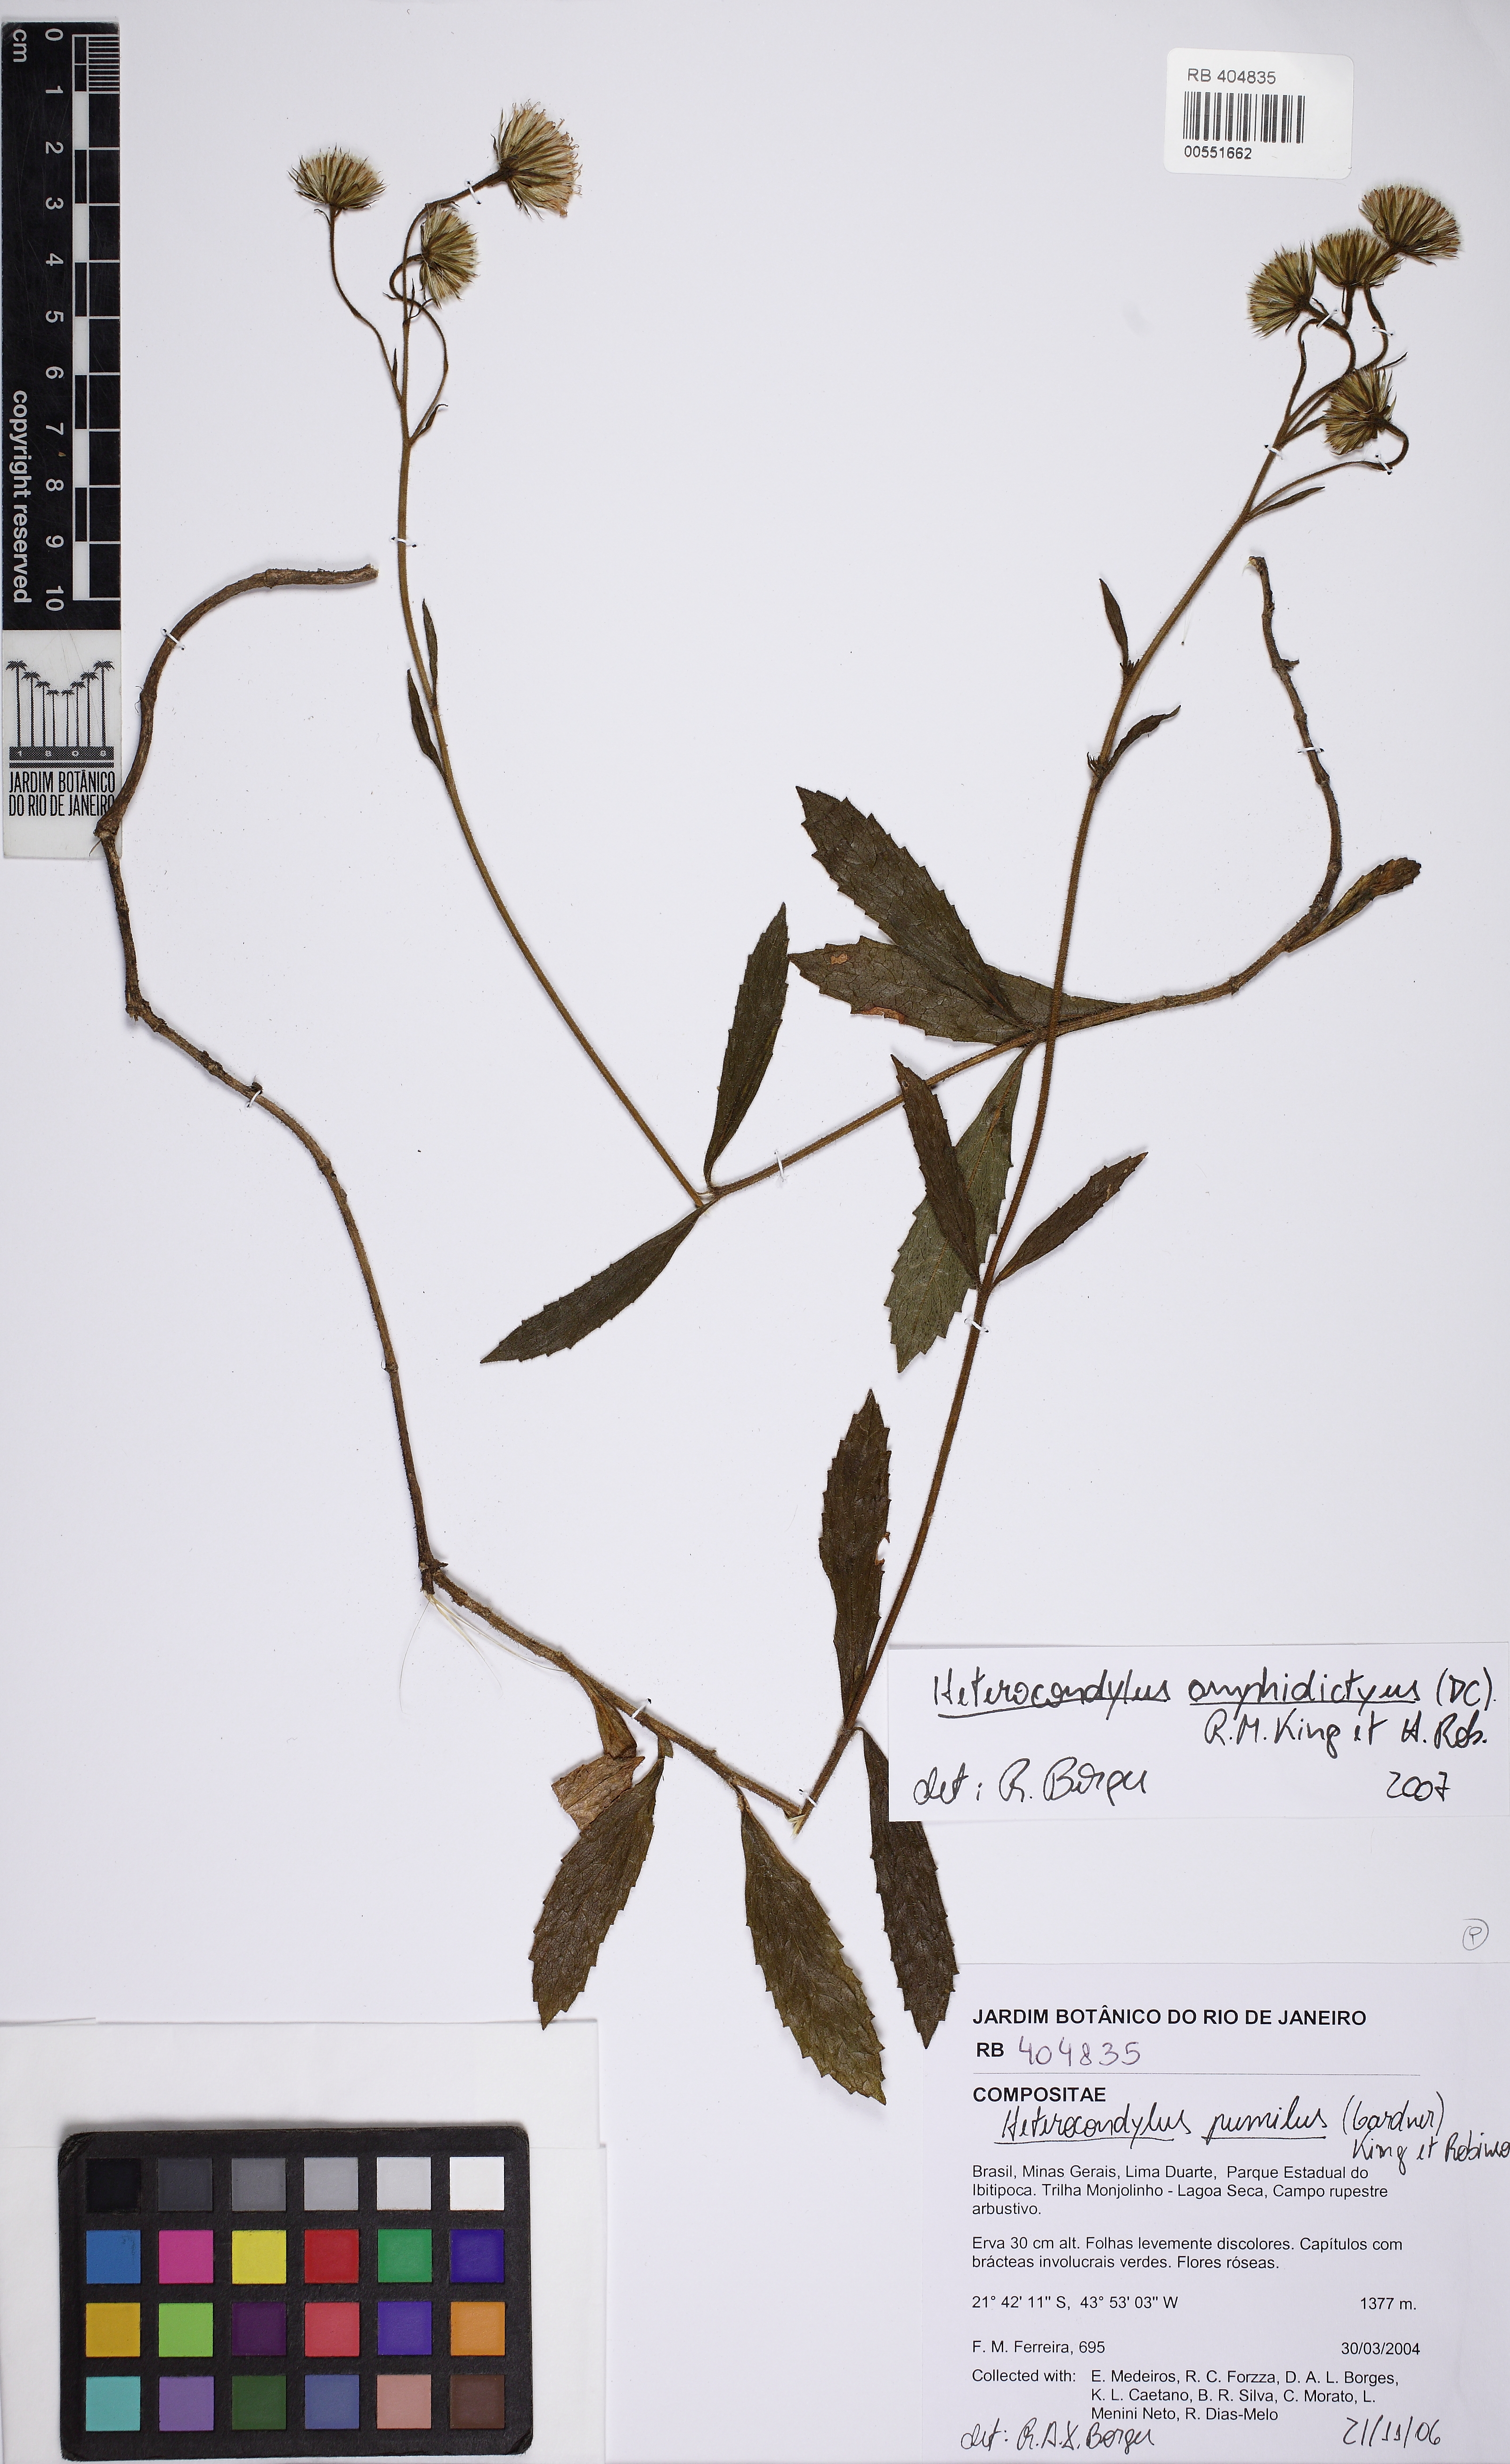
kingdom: Plantae
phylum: Tracheophyta
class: Magnoliopsida
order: Asterales
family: Asteraceae
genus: Heterocondylus
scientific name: Heterocondylus amphidictyus
